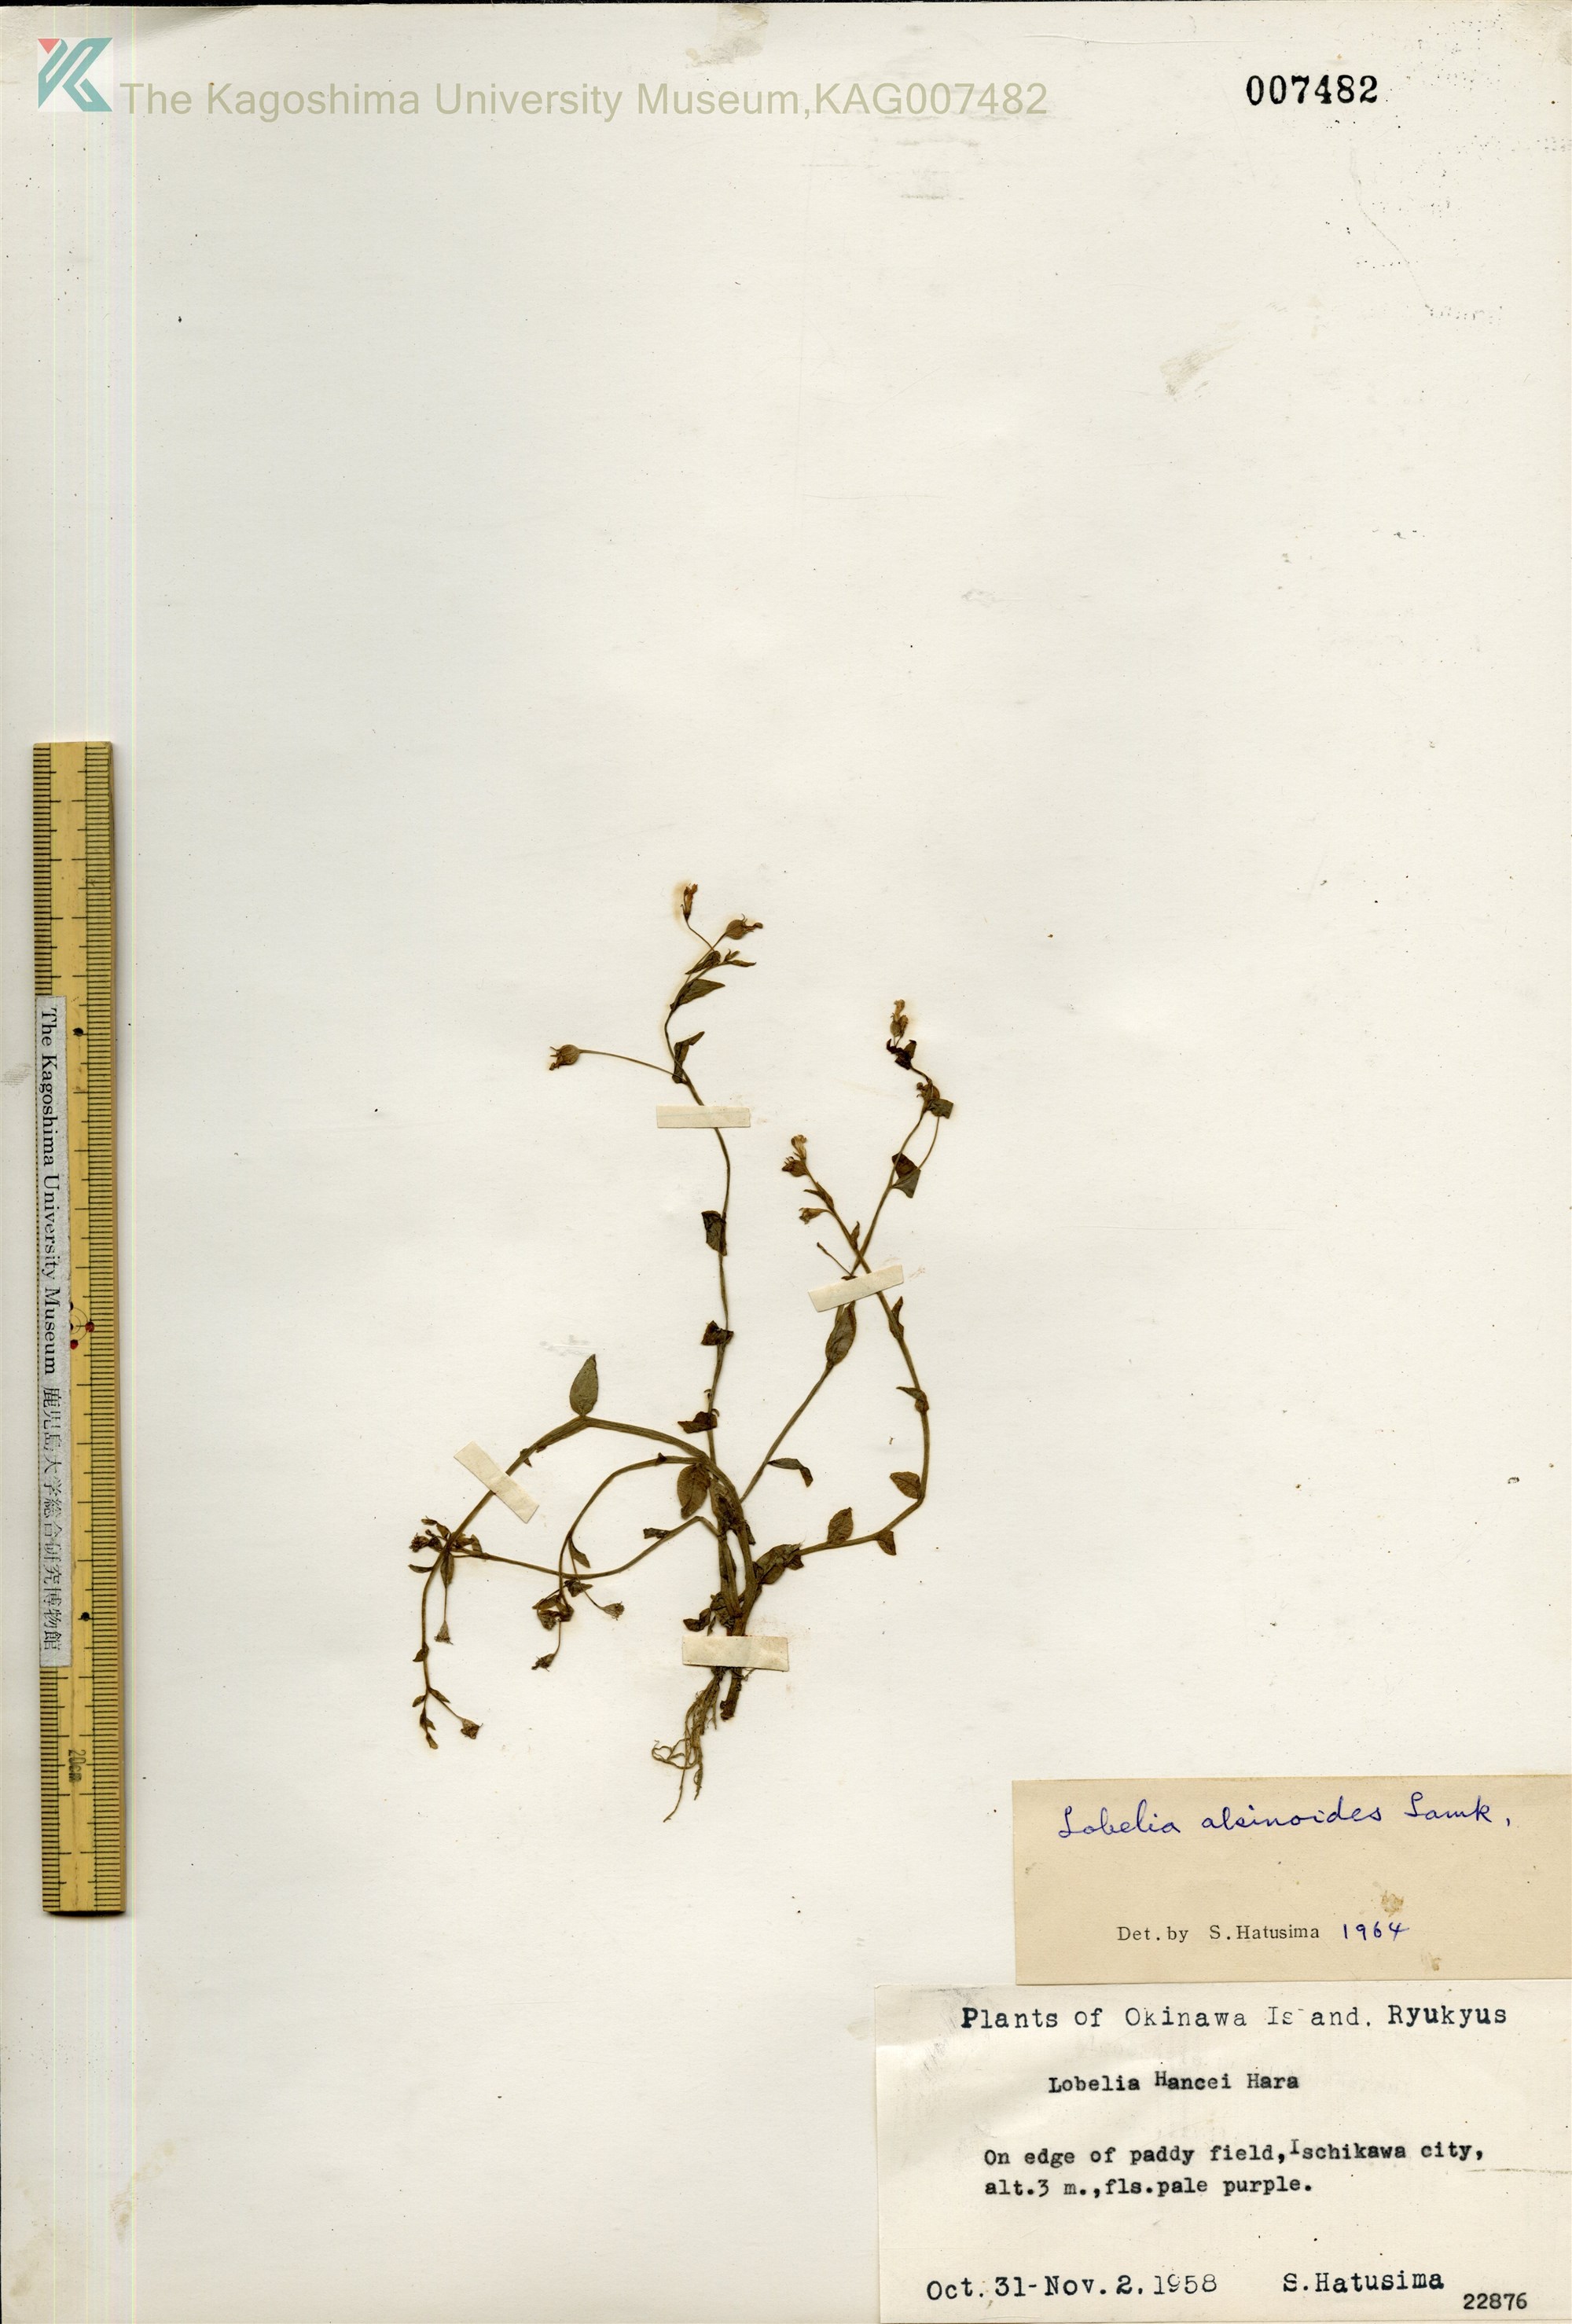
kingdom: Plantae
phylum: Tracheophyta
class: Magnoliopsida
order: Asterales
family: Campanulaceae
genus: Lobelia
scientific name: Lobelia alsinoides
